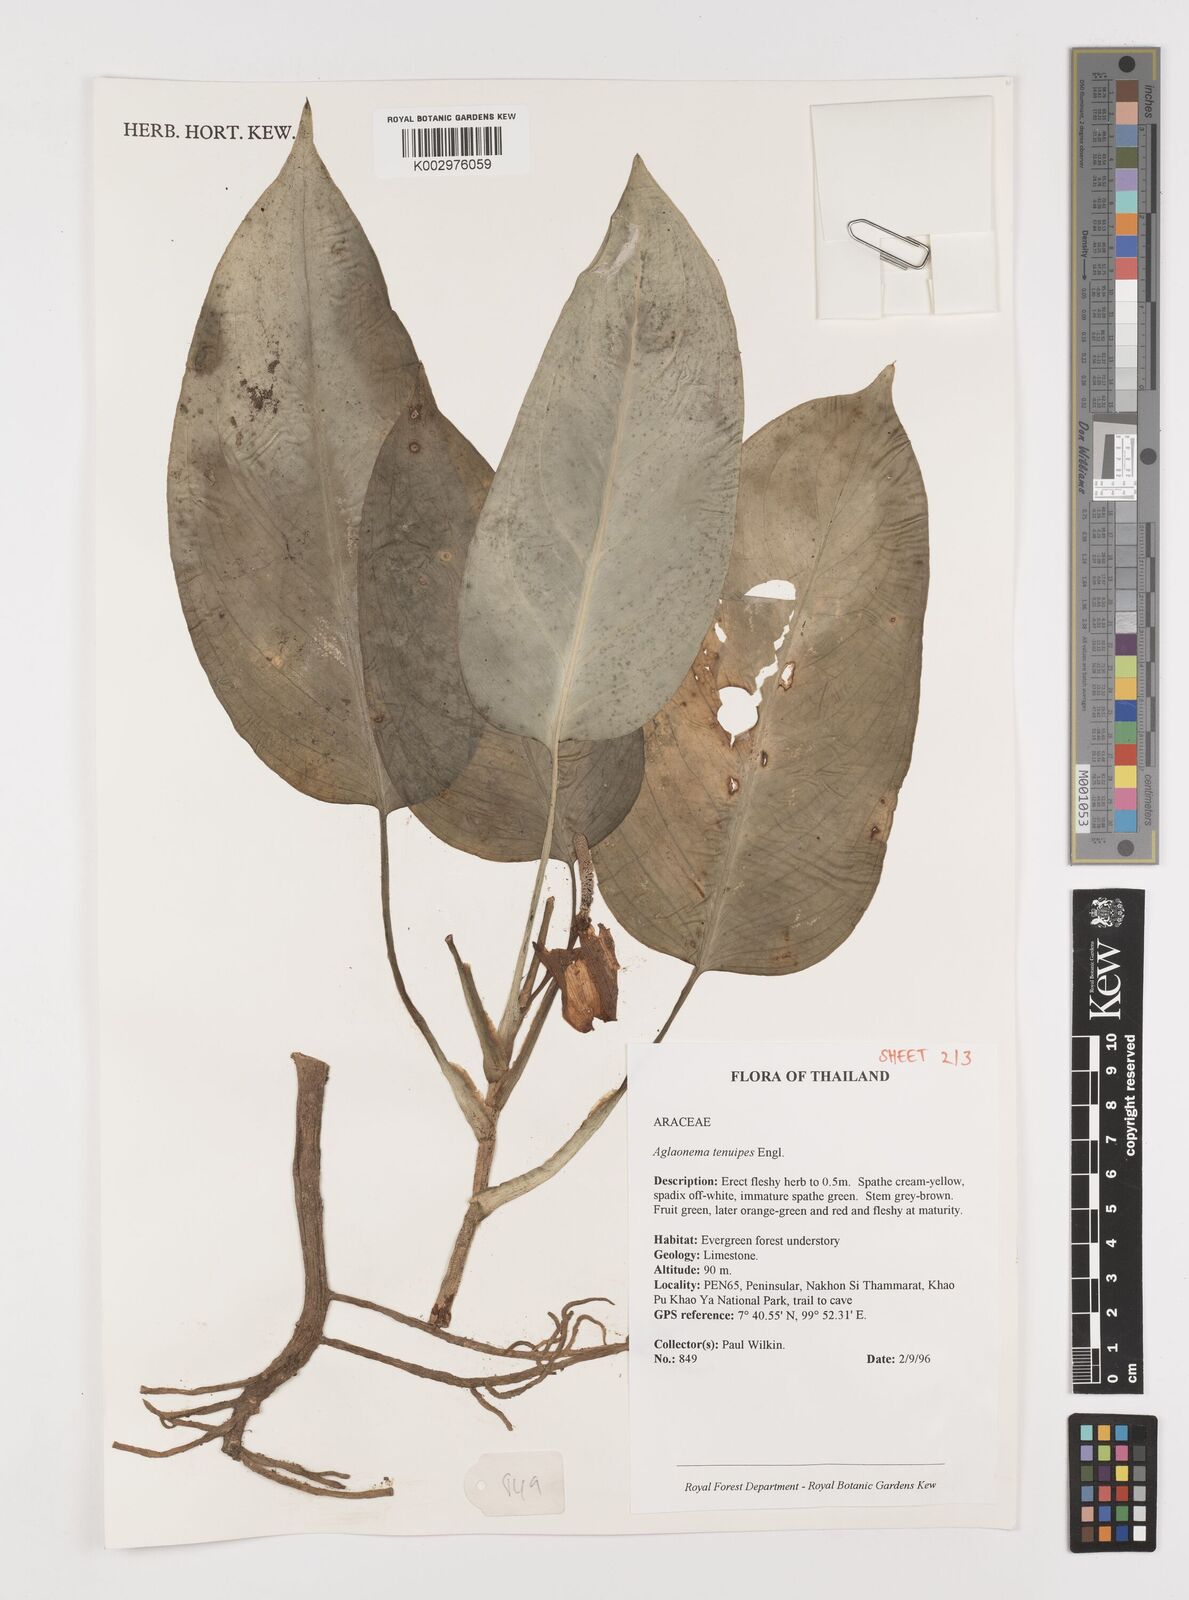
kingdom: Plantae
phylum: Tracheophyta
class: Liliopsida
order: Alismatales
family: Araceae
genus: Aglaonema
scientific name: Aglaonema simplex
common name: Malayan-sword
